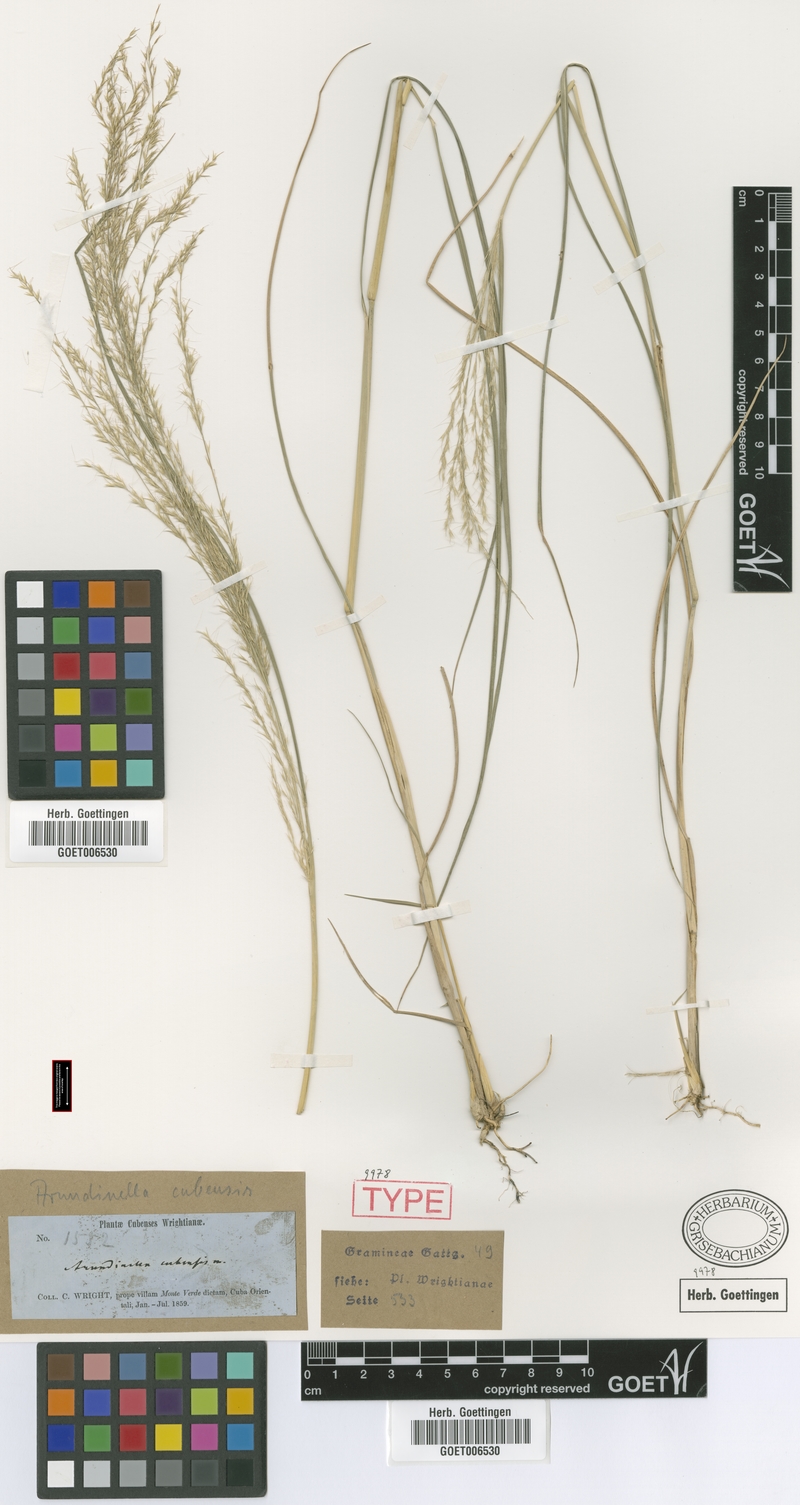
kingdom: Plantae
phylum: Tracheophyta
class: Liliopsida
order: Poales
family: Poaceae
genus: Arundinella
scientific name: Arundinella berteroniana
